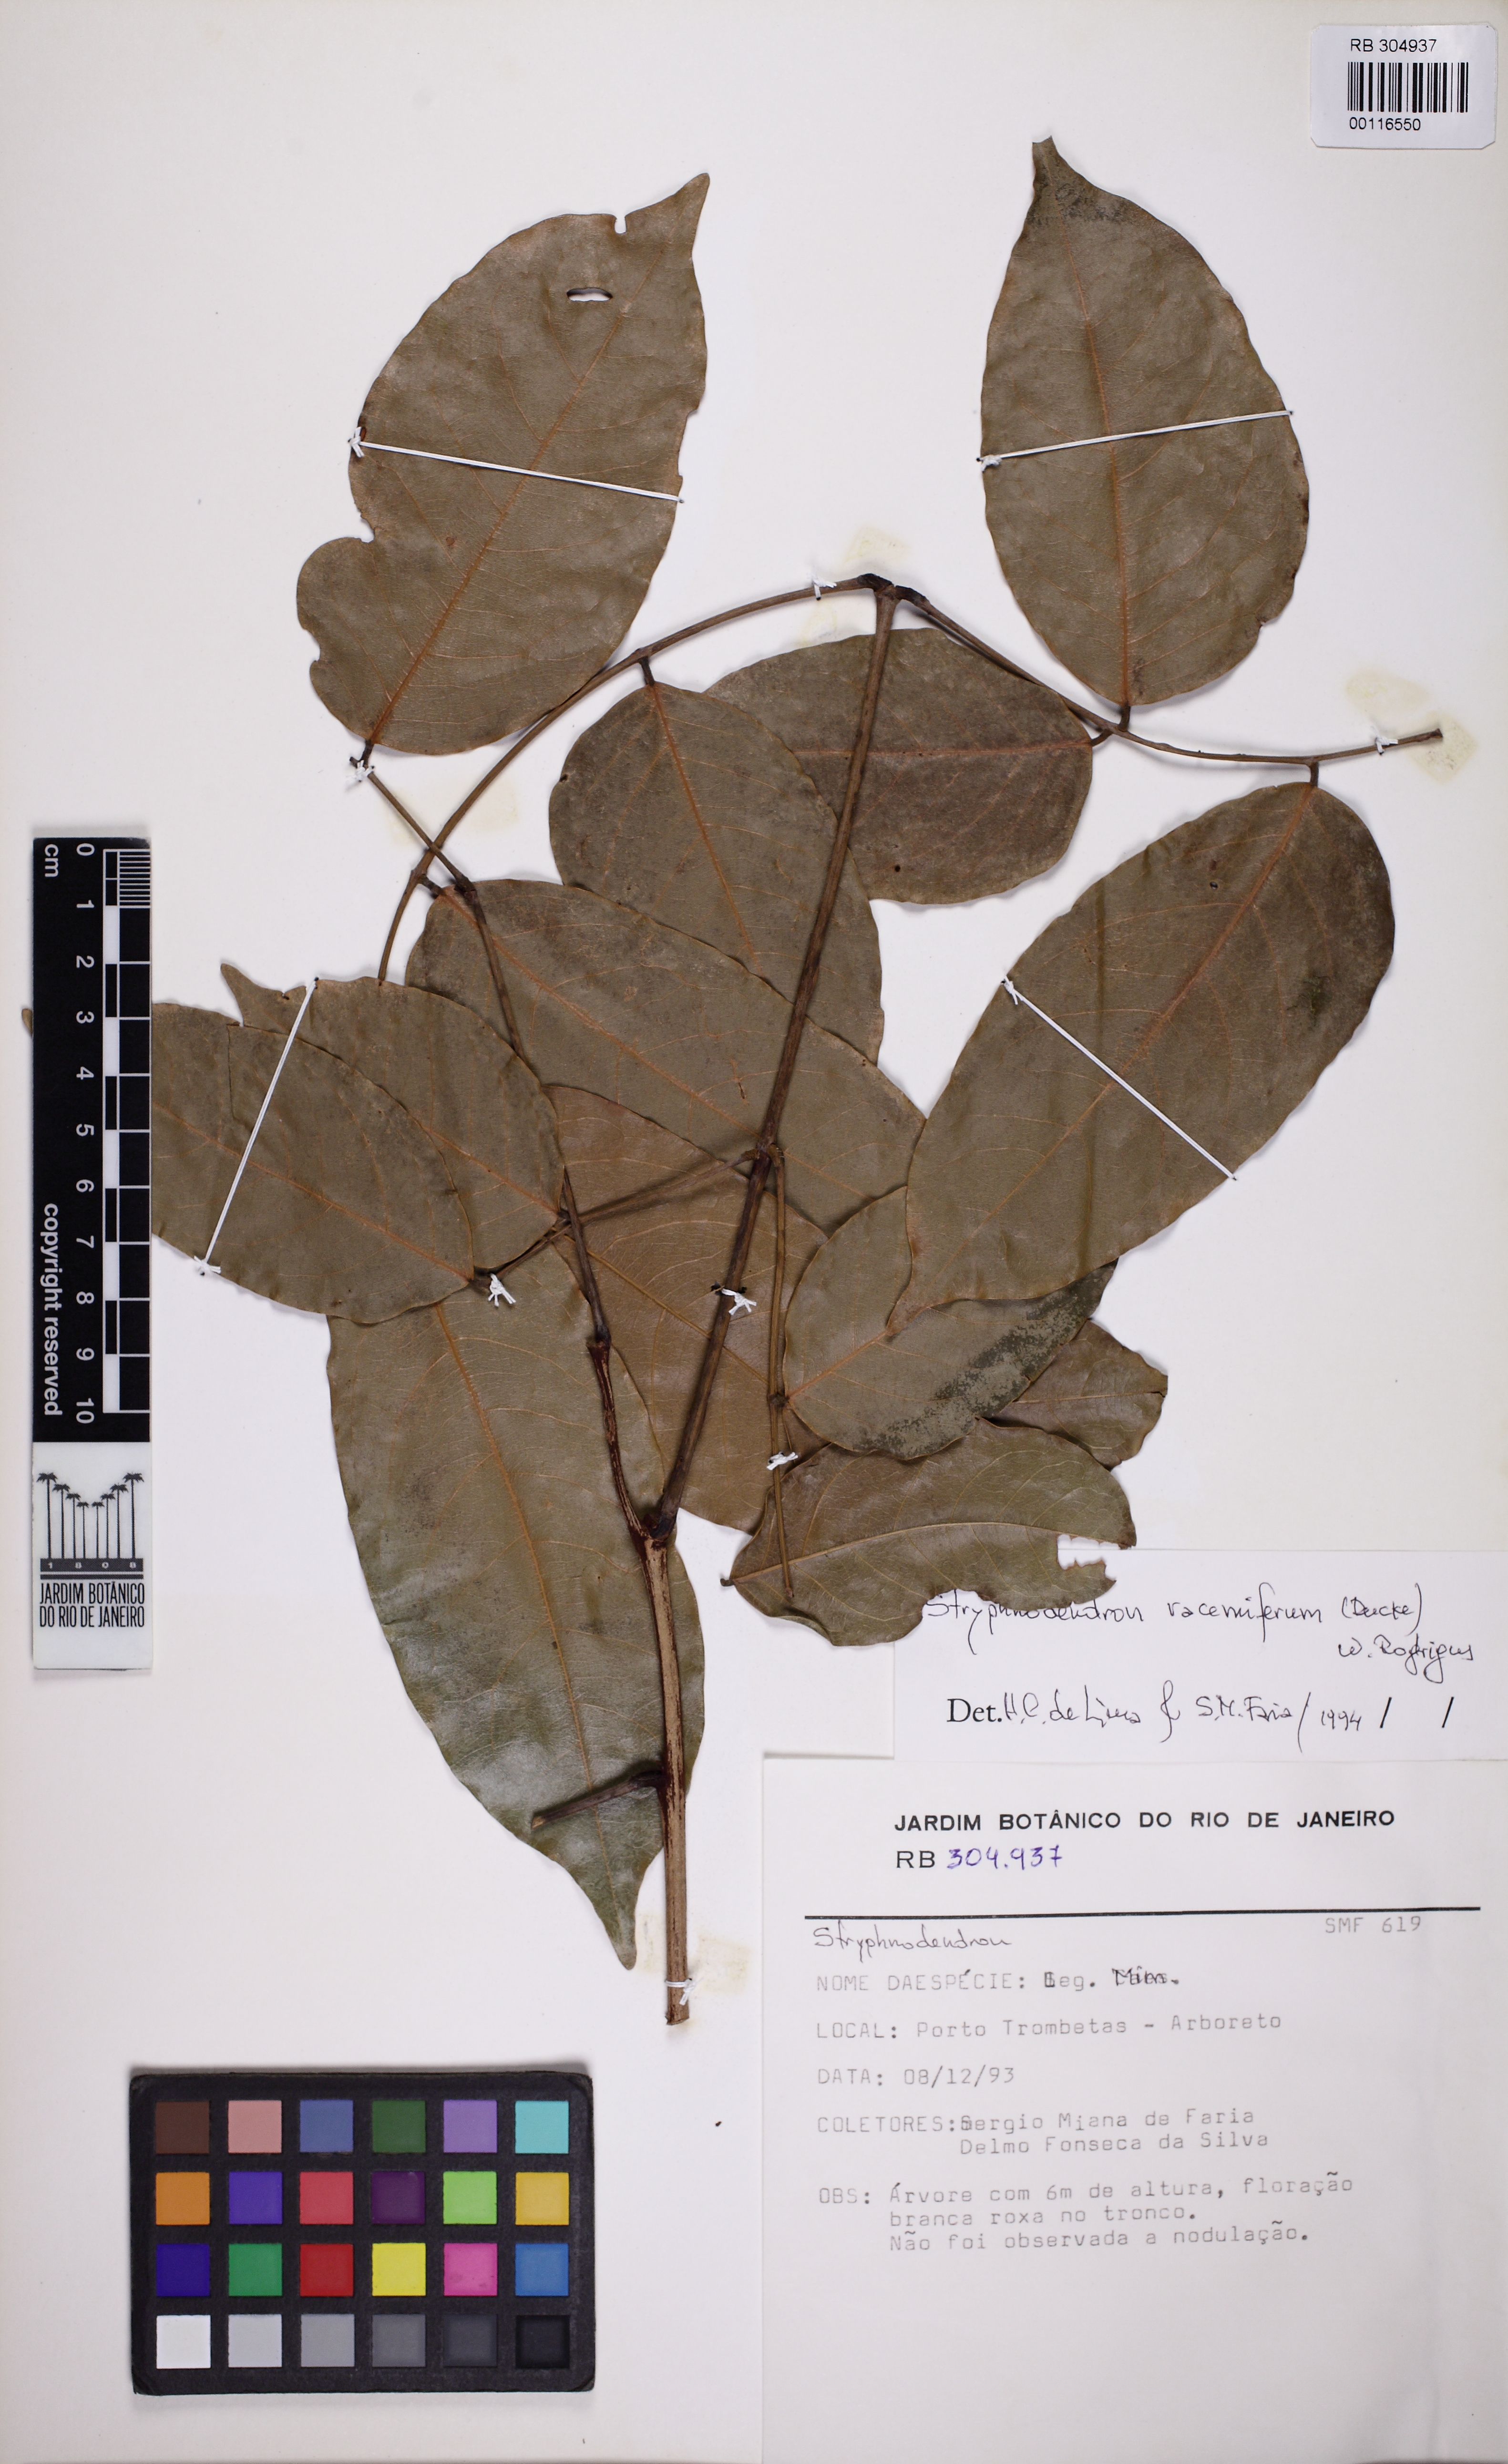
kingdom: Plantae
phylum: Tracheophyta
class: Magnoliopsida
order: Fabales
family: Fabaceae
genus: Stryphnodendron
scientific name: Stryphnodendron paniculatum
